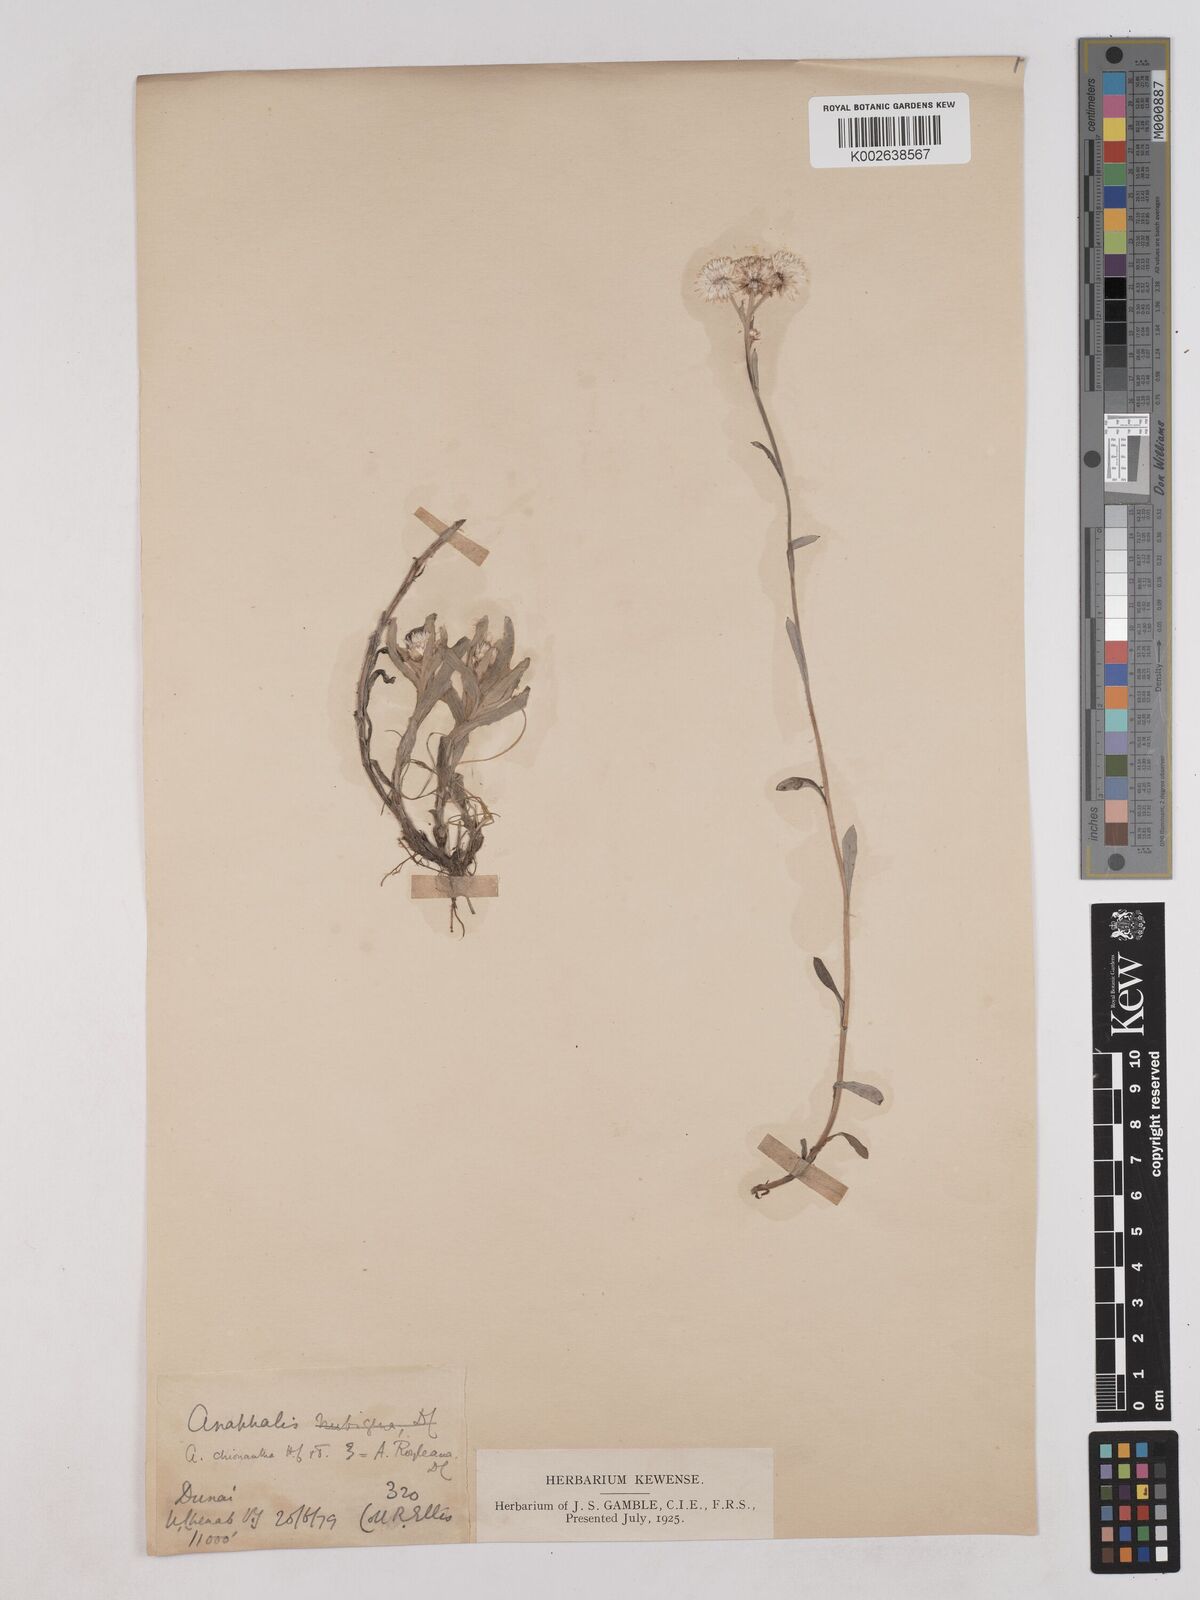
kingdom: Plantae
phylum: Tracheophyta
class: Magnoliopsida
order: Asterales
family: Asteraceae
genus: Anaphalis
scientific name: Anaphalis royleana
